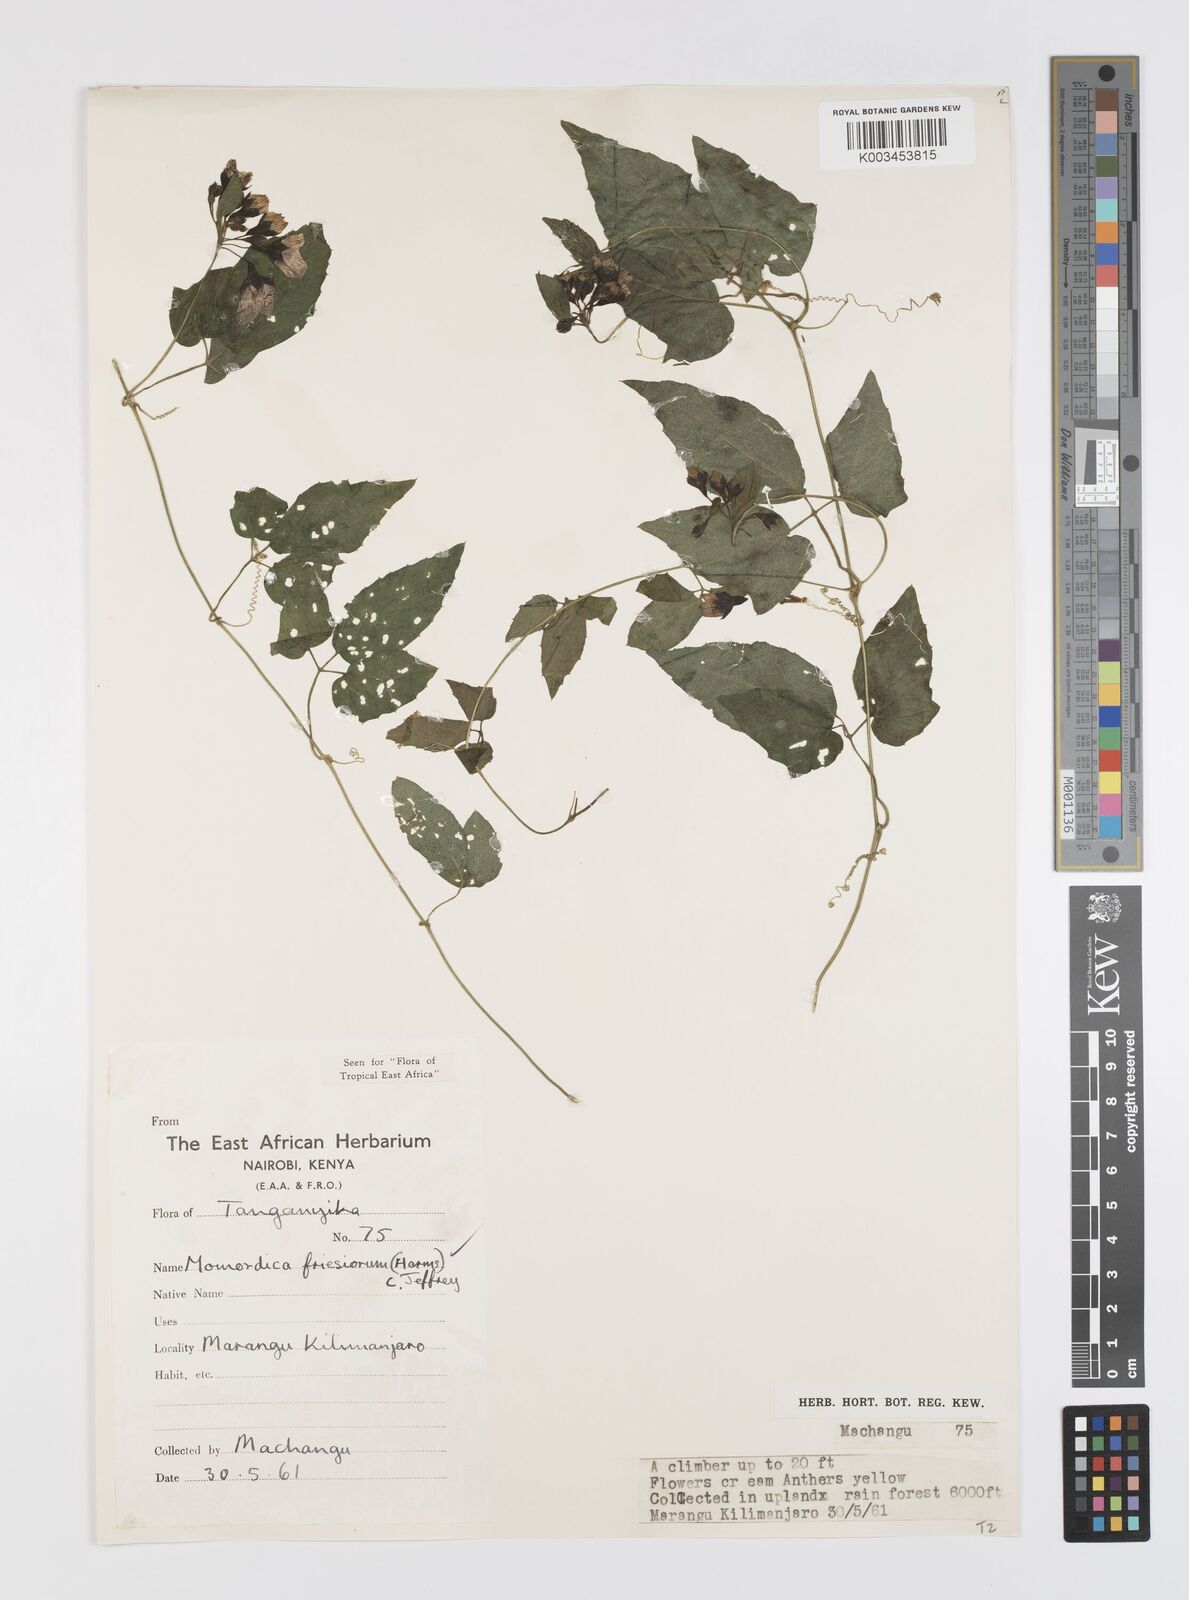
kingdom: Plantae
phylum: Tracheophyta
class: Magnoliopsida
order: Cucurbitales
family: Cucurbitaceae
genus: Momordica
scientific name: Momordica friesiorum
